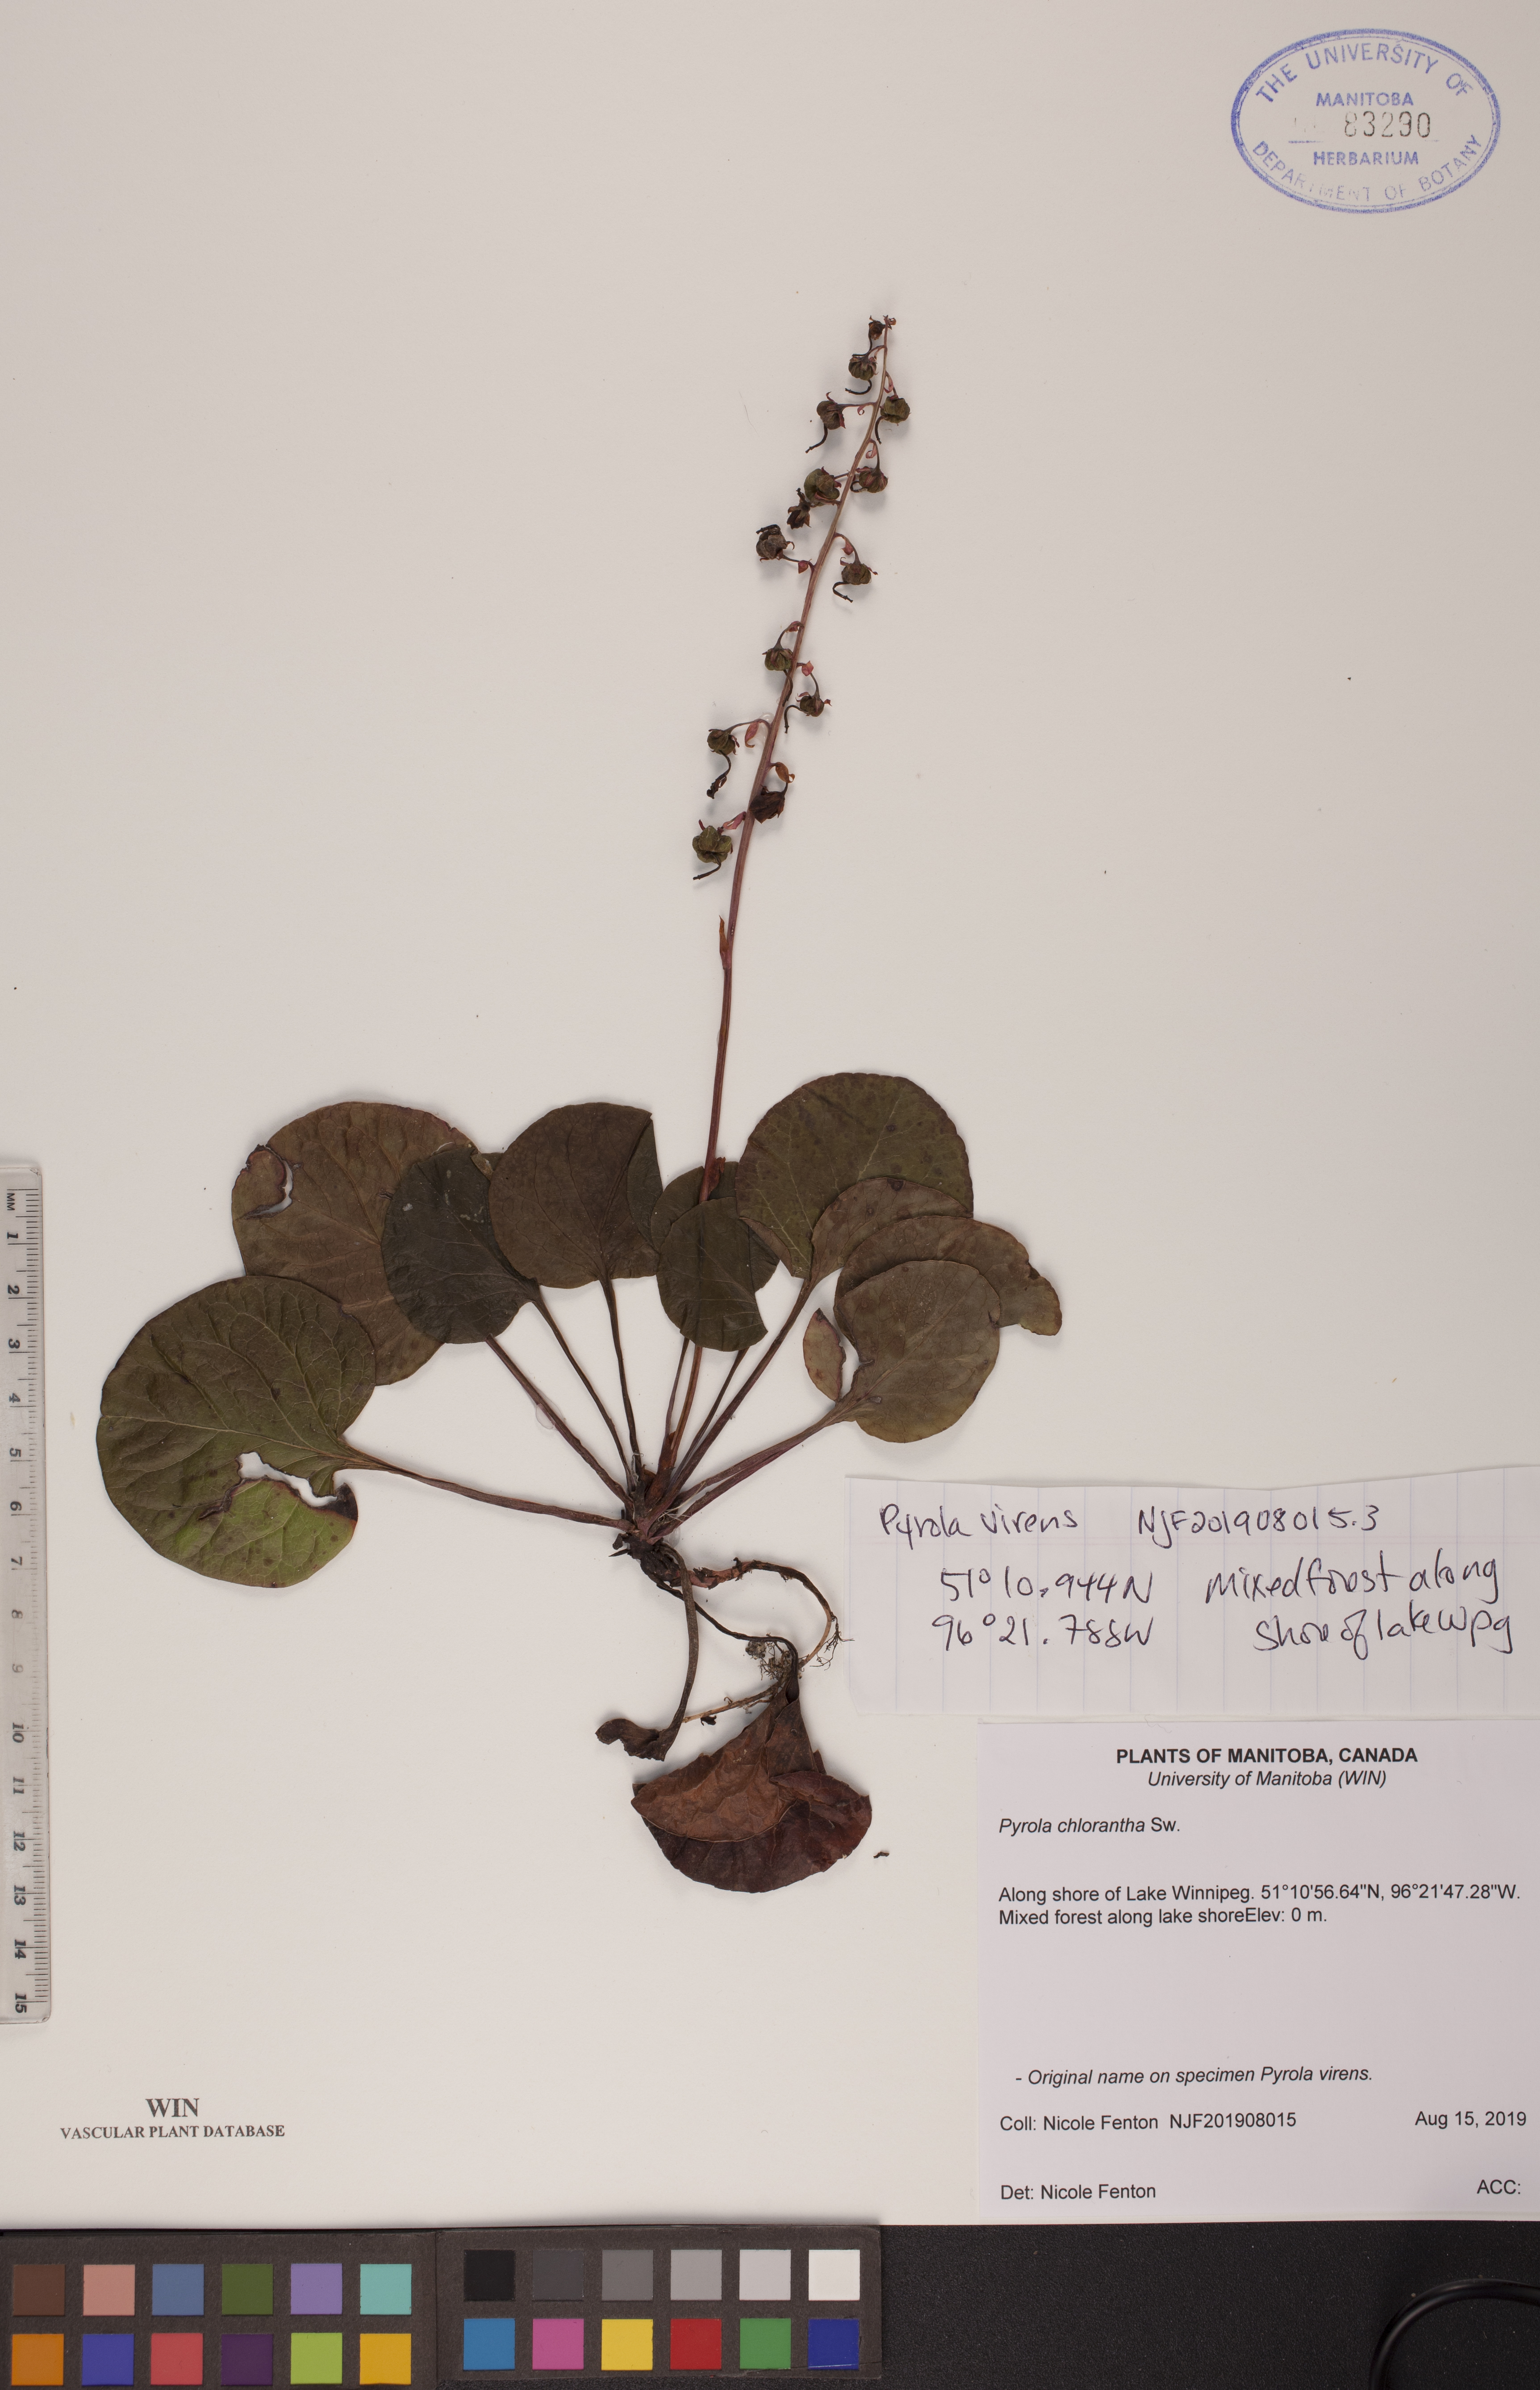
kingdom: Plantae
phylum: Tracheophyta
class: Magnoliopsida
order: Ericales
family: Ericaceae
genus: Pyrola
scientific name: Pyrola chlorantha
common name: Green wintergreen
